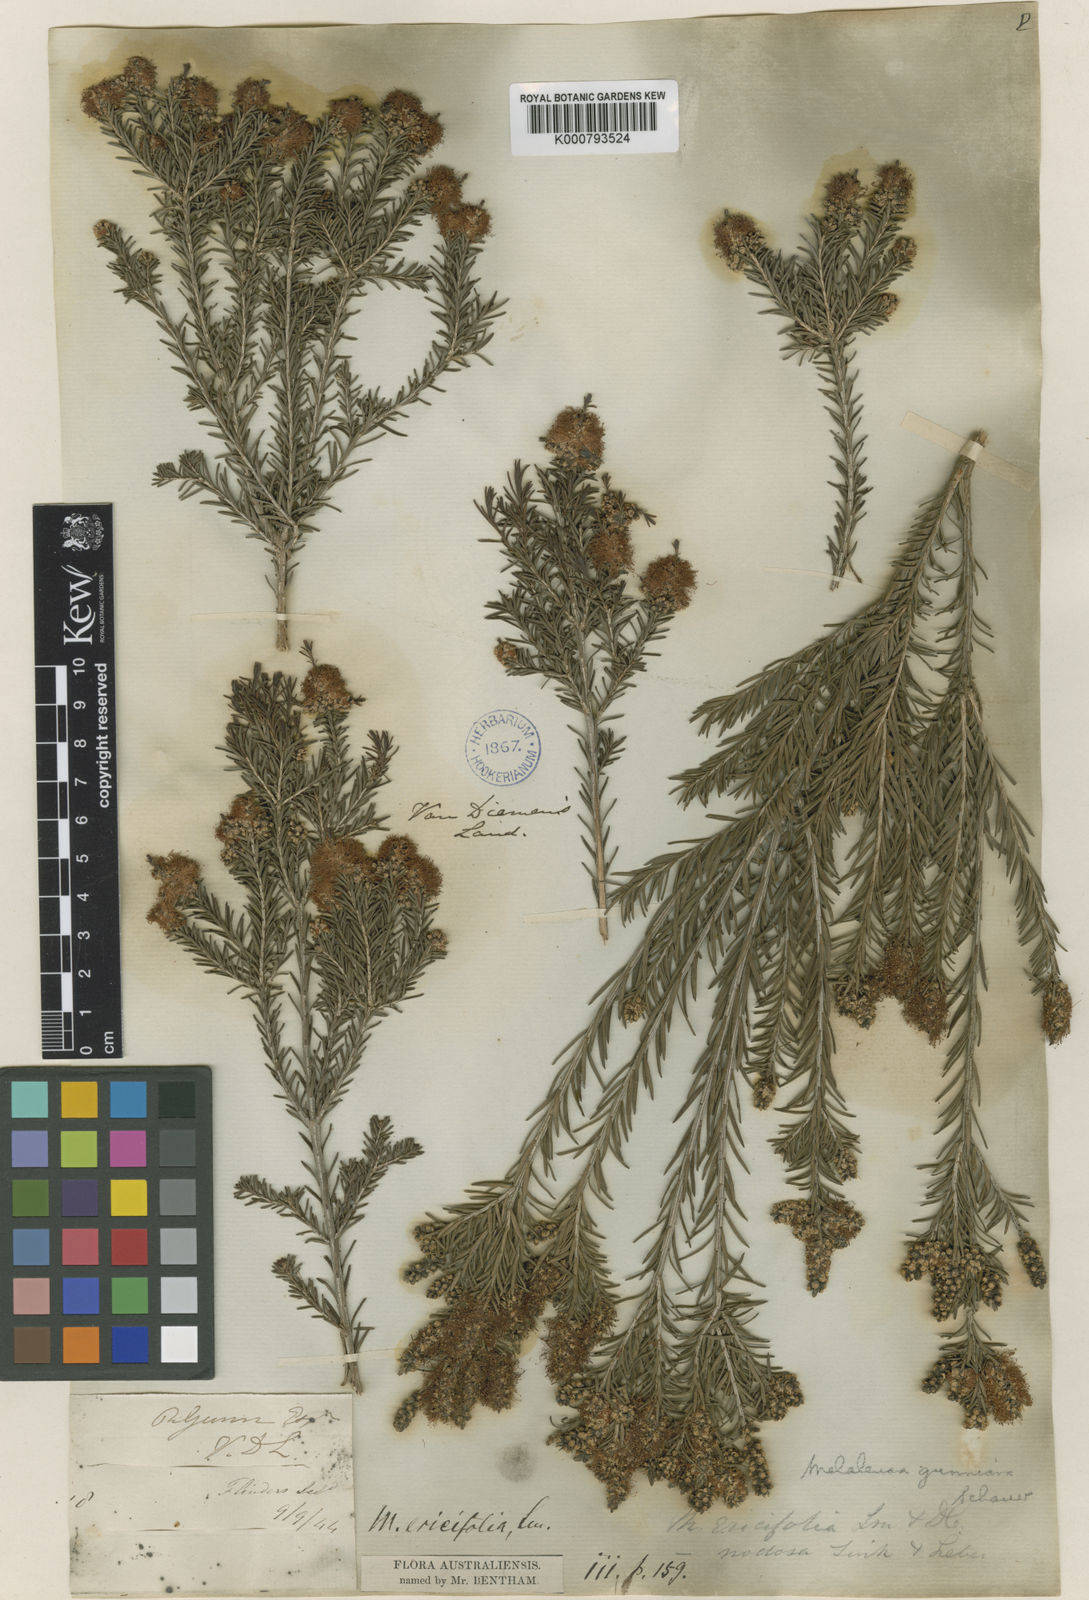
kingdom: Plantae
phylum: Tracheophyta
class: Magnoliopsida
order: Myrtales
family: Myrtaceae
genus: Melaleuca
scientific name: Melaleuca ericifolia
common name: Paperbark teatree
